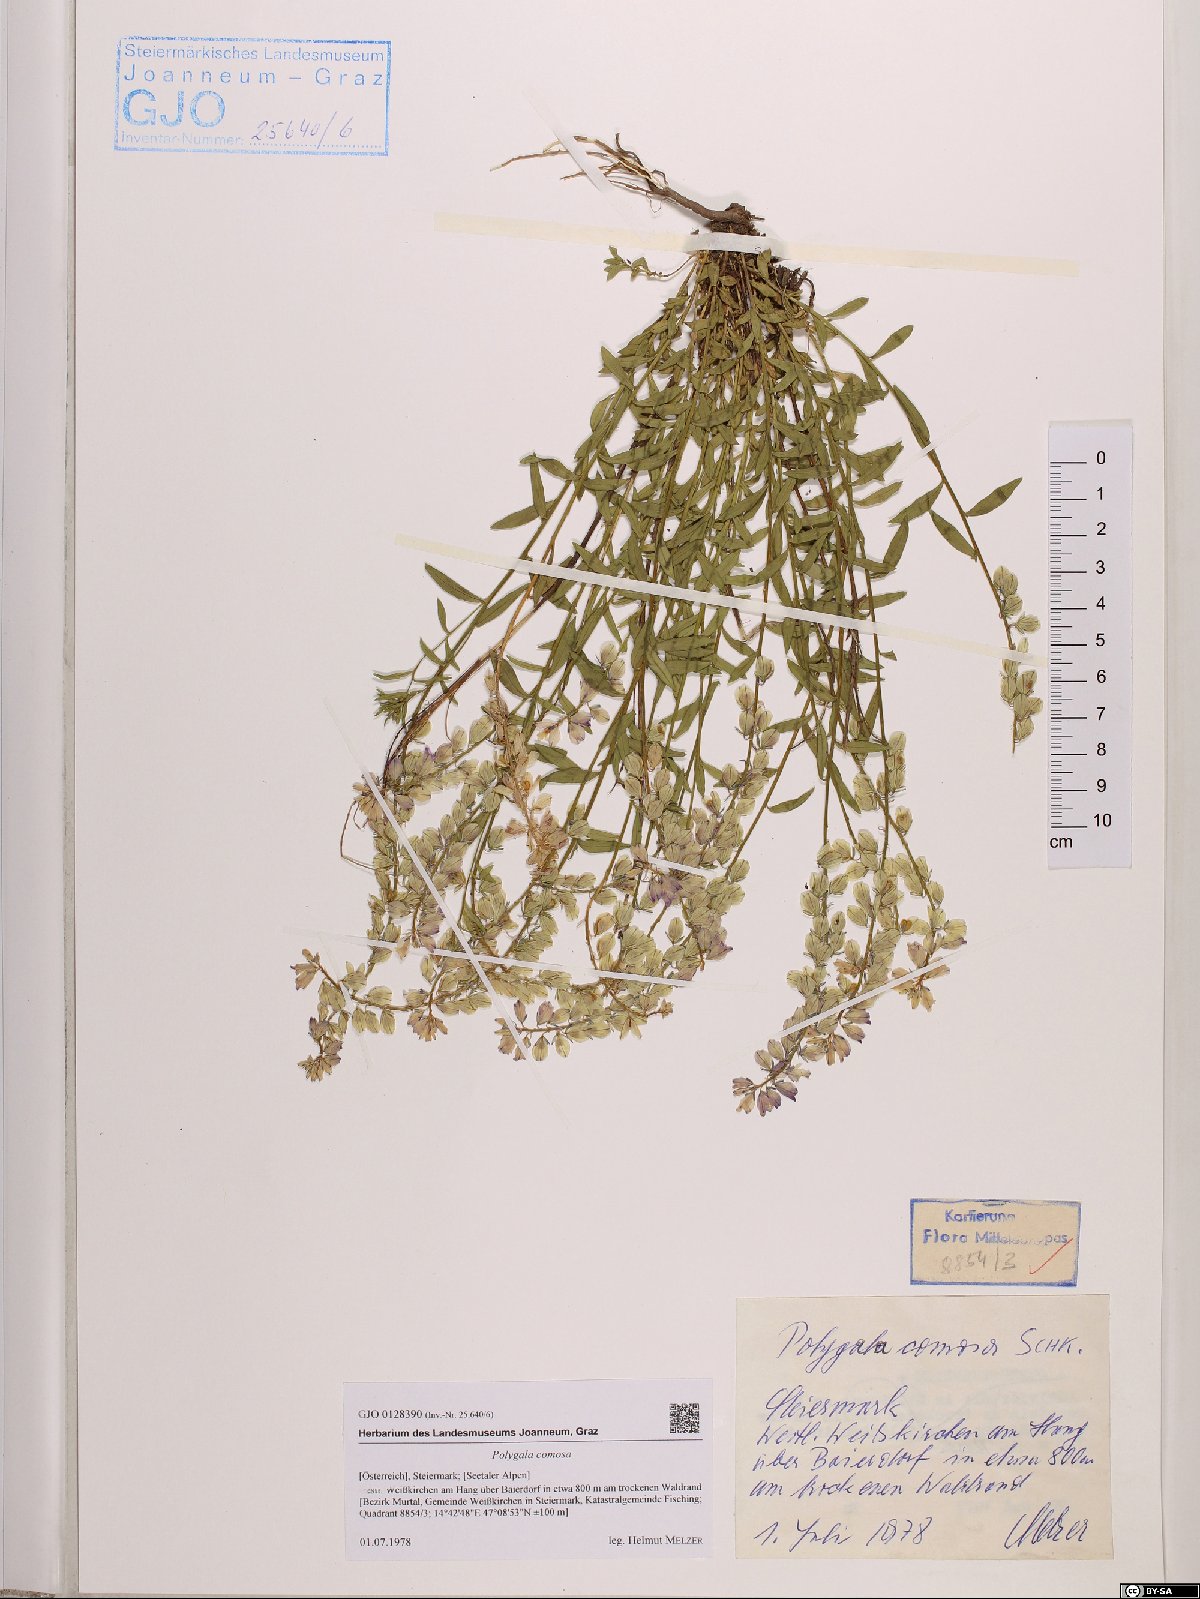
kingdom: Plantae
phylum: Tracheophyta
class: Magnoliopsida
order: Fabales
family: Polygalaceae
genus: Polygala
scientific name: Polygala comosa
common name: Tufted milkwort
